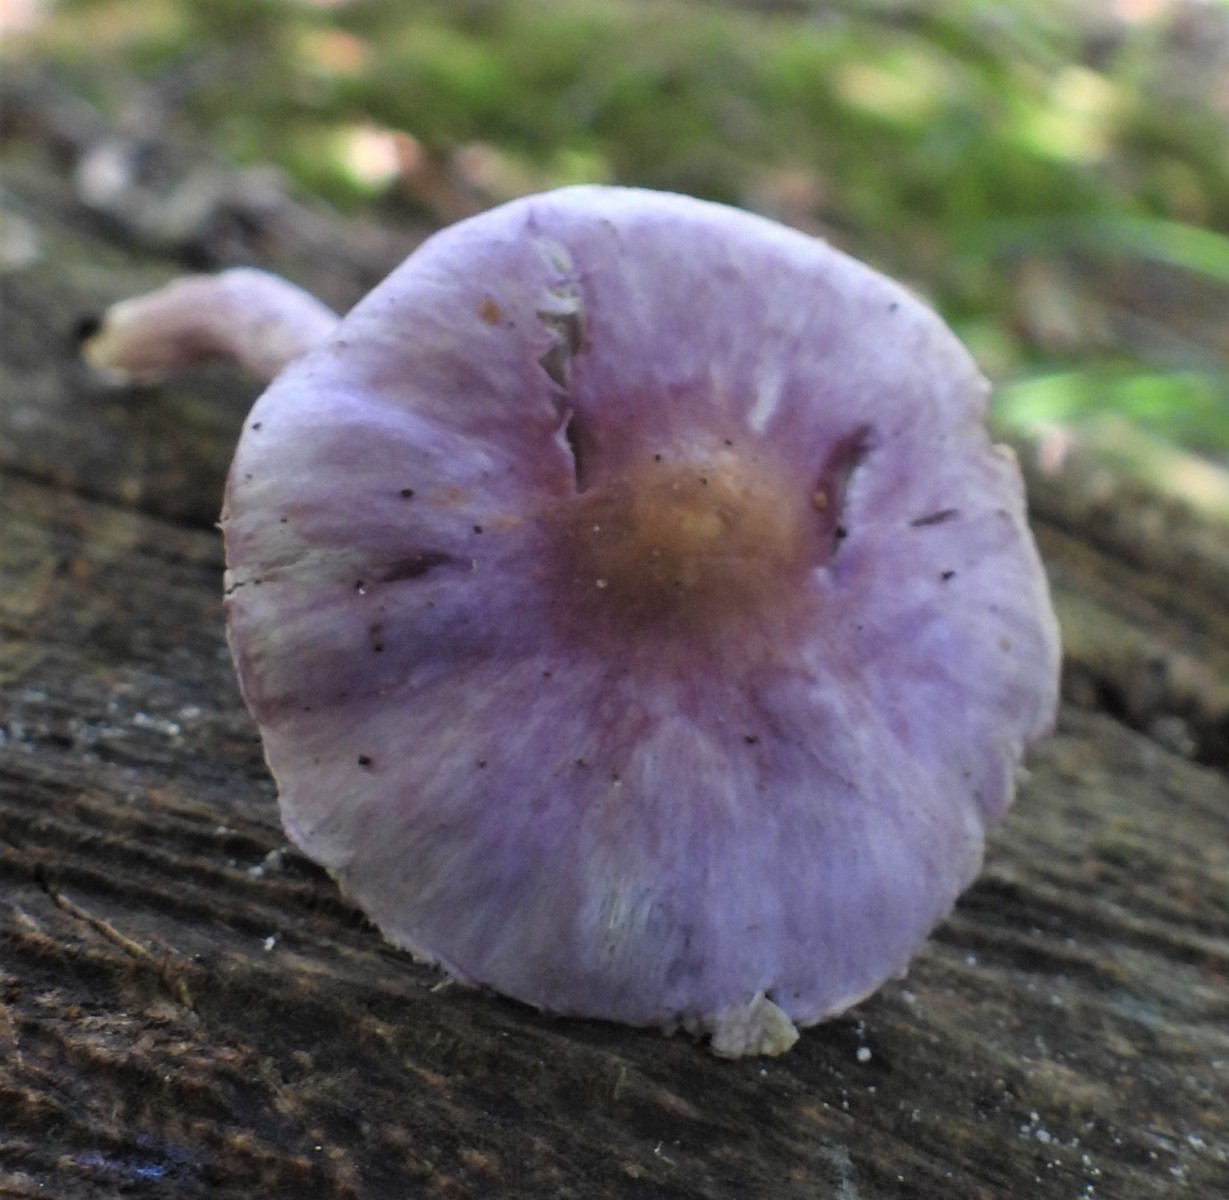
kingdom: Fungi
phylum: Basidiomycota
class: Agaricomycetes
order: Agaricales
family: Inocybaceae
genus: Inocybe
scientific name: Inocybe geophylla
